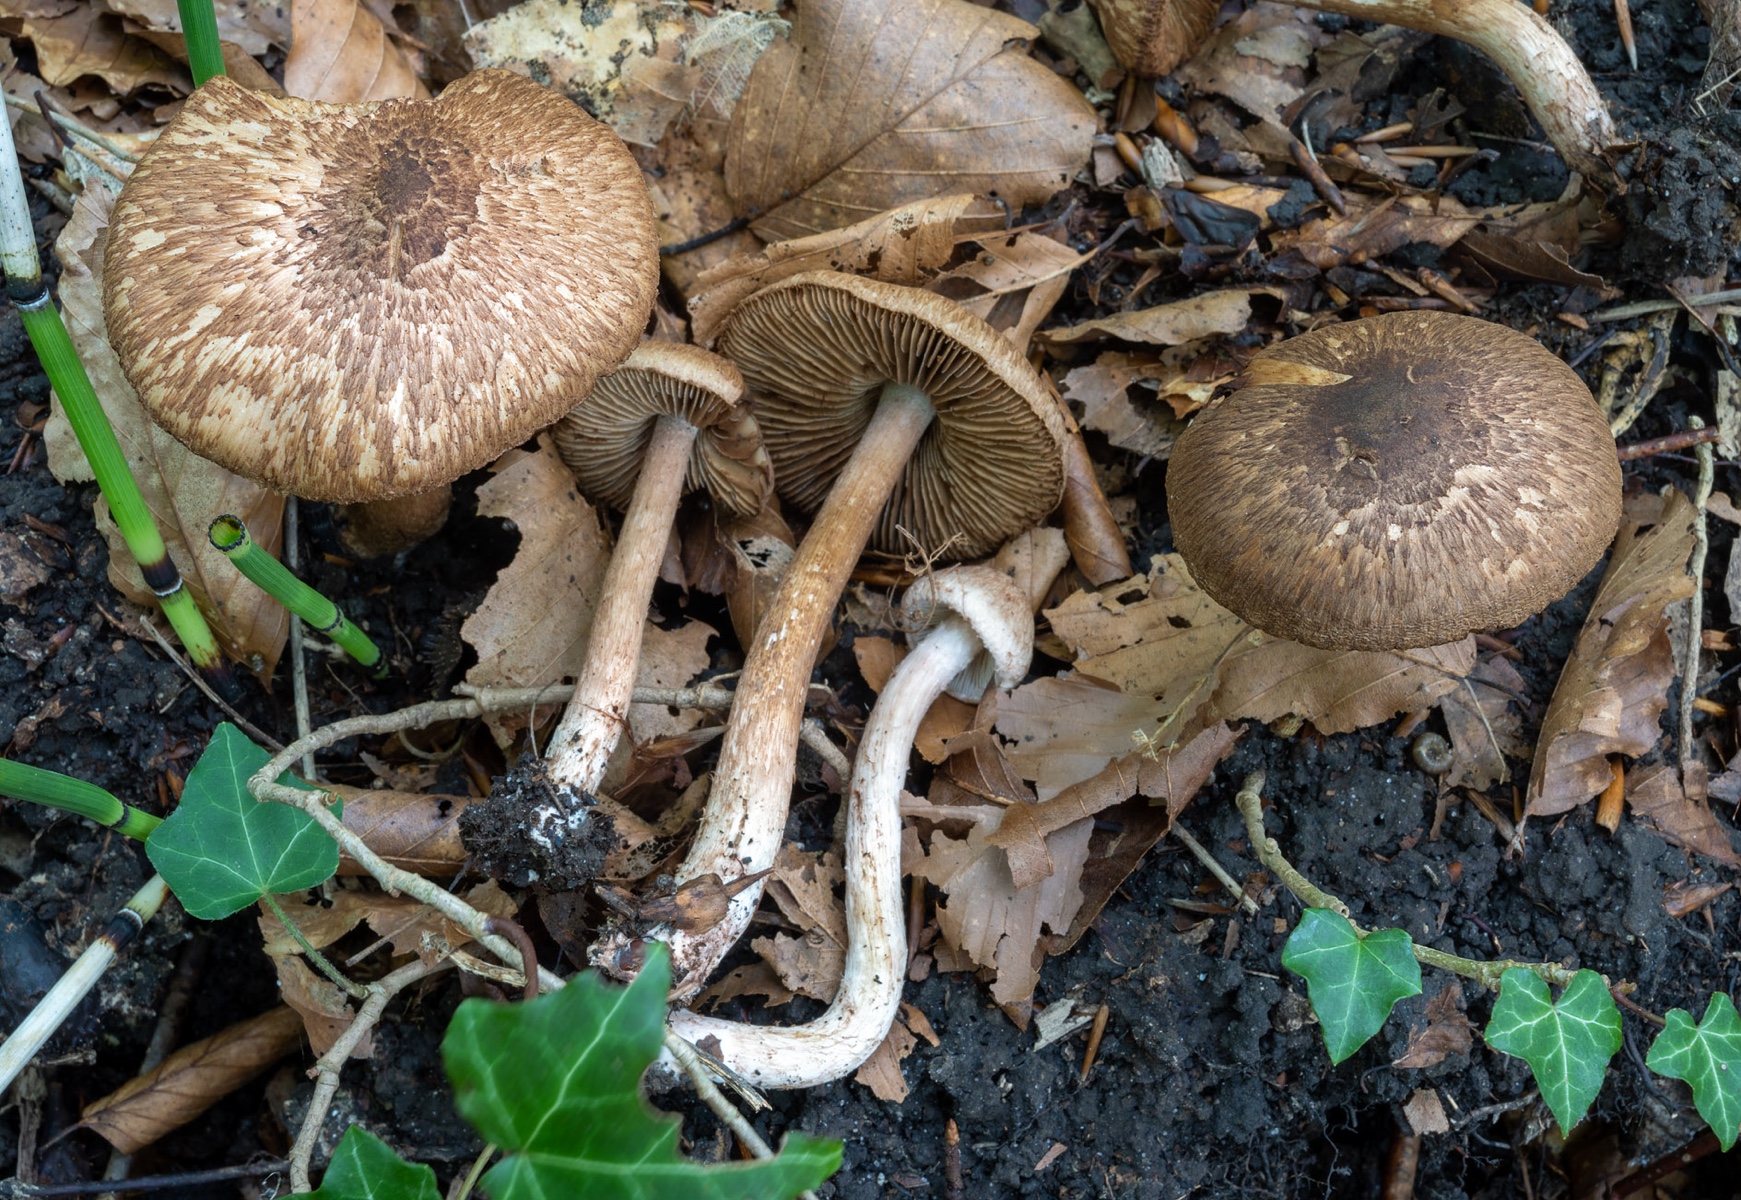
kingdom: Fungi
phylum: Basidiomycota
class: Agaricomycetes
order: Agaricales
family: Inocybaceae
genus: Inosperma
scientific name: Inosperma bongardii
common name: Bongards trævlhat
